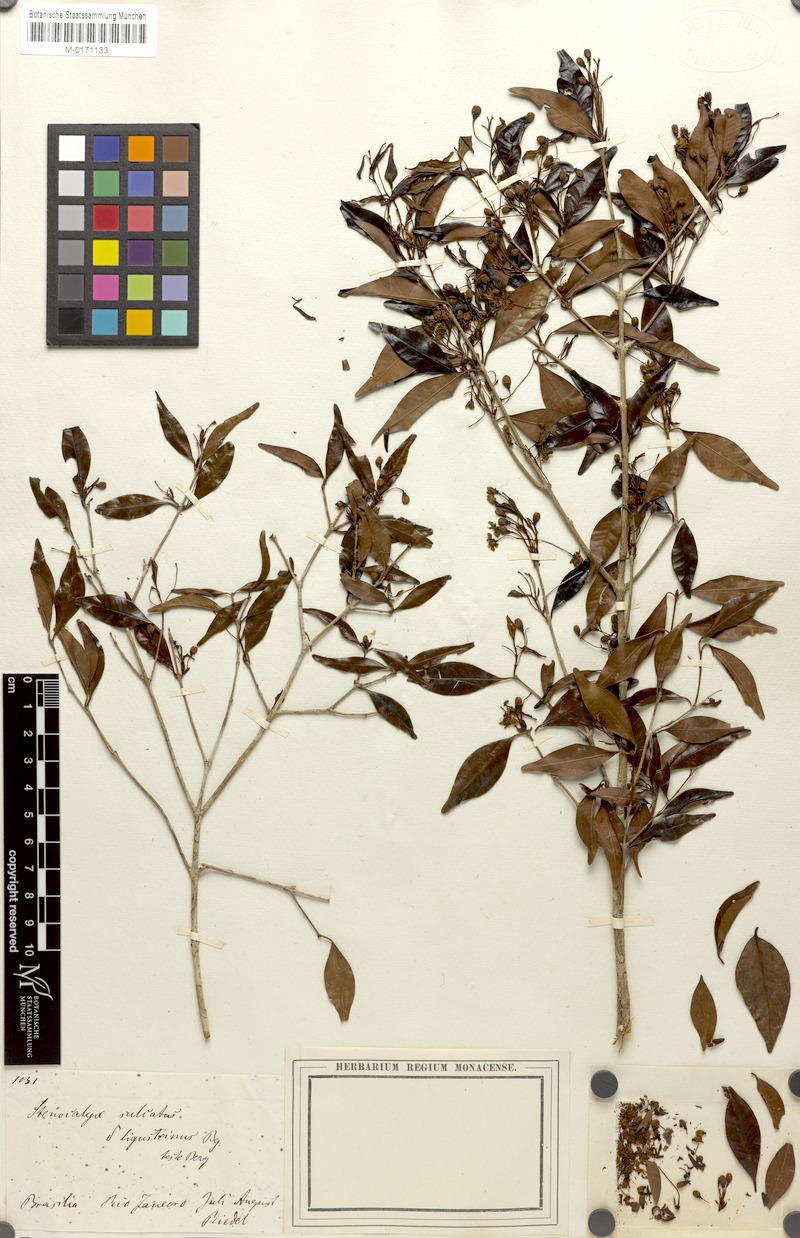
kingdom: Plantae
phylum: Tracheophyta
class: Magnoliopsida
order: Myrtales
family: Myrtaceae
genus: Eugenia
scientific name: Eugenia sulcata
